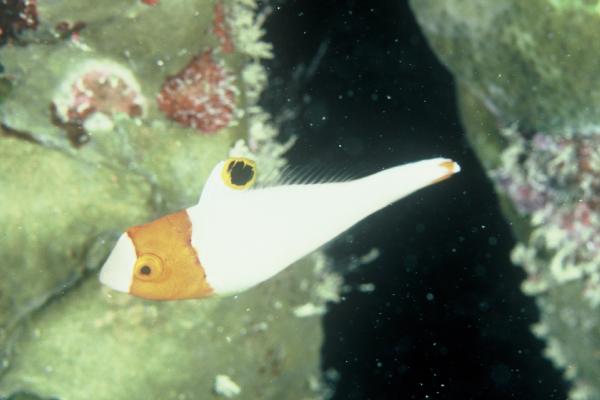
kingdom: Animalia
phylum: Chordata
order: Perciformes
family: Scaridae
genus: Cetoscarus
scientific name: Cetoscarus bicolor
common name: Bicolour parrotfish
